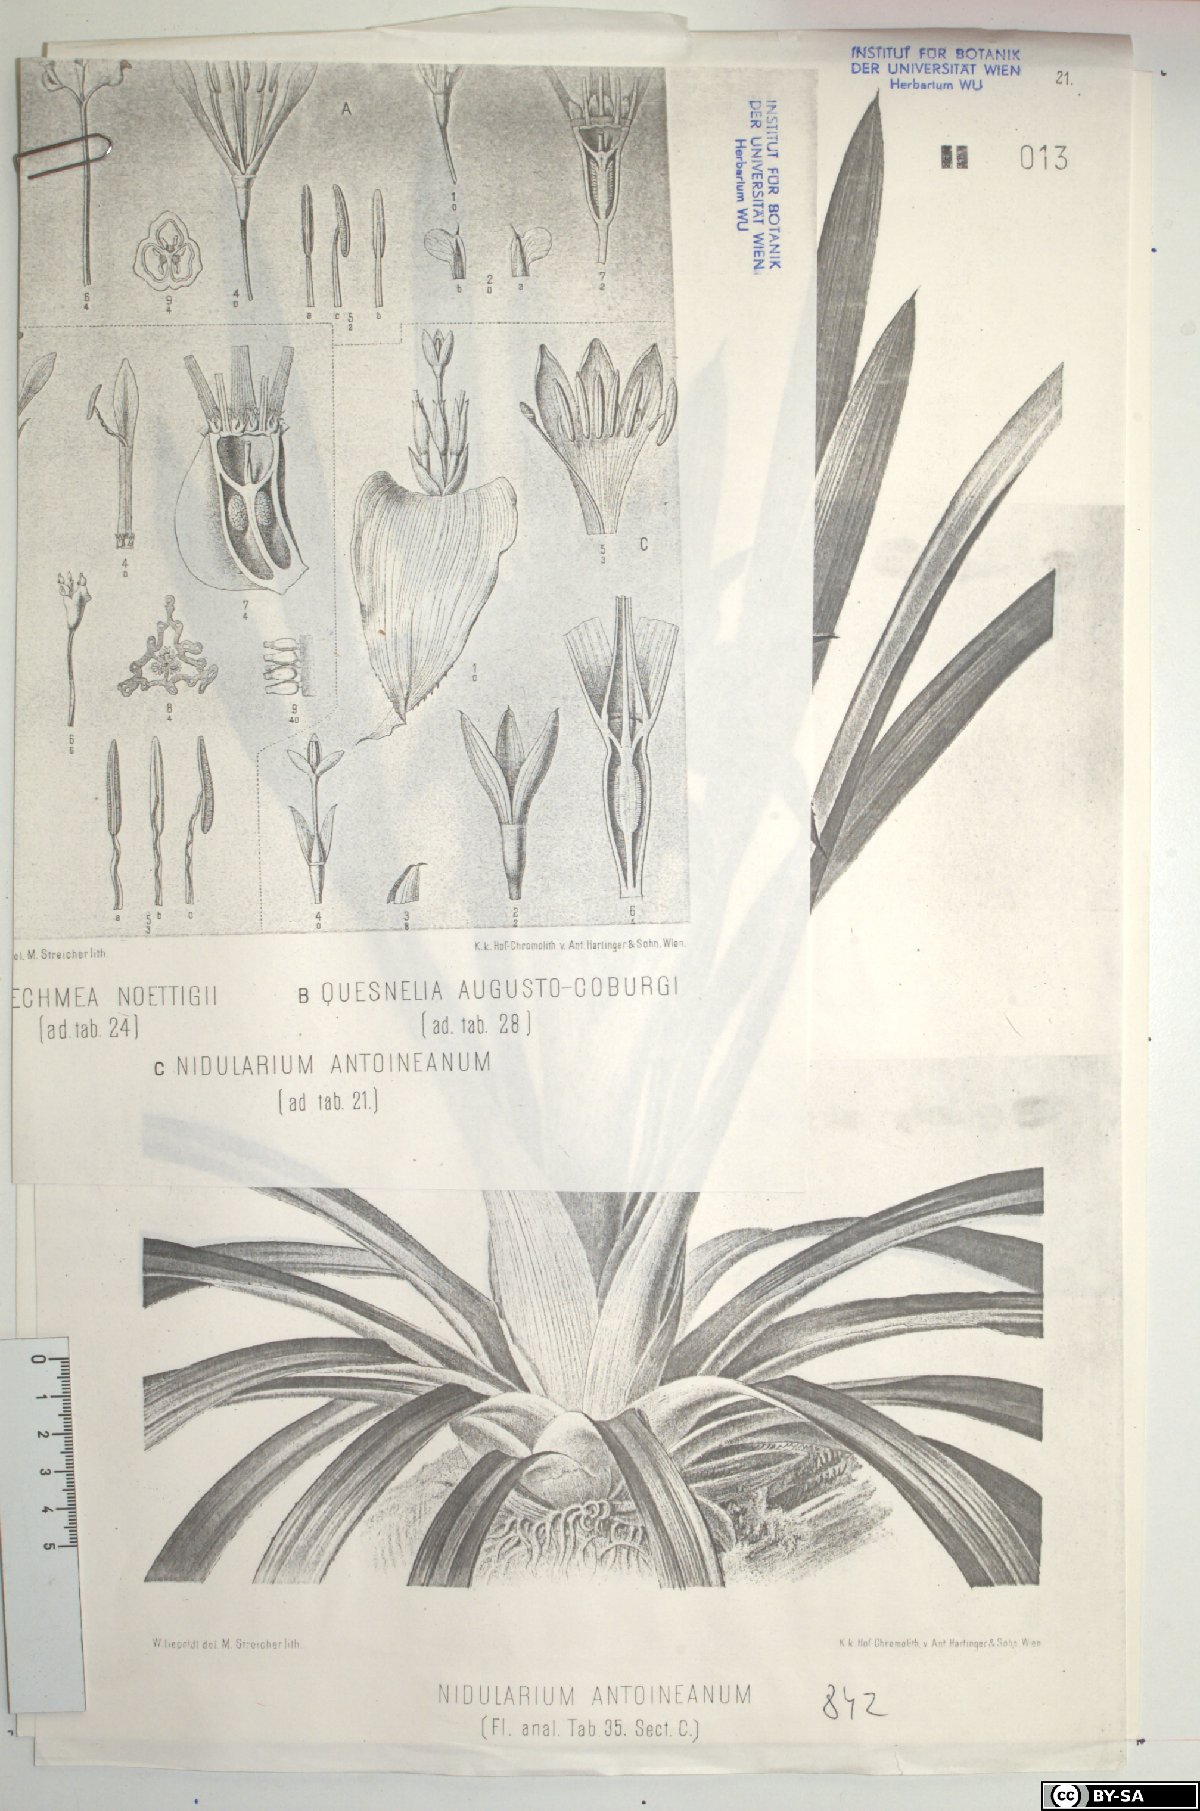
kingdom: Plantae
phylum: Tracheophyta
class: Liliopsida
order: Poales
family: Bromeliaceae
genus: Nidularium
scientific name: Nidularium antoineanum
